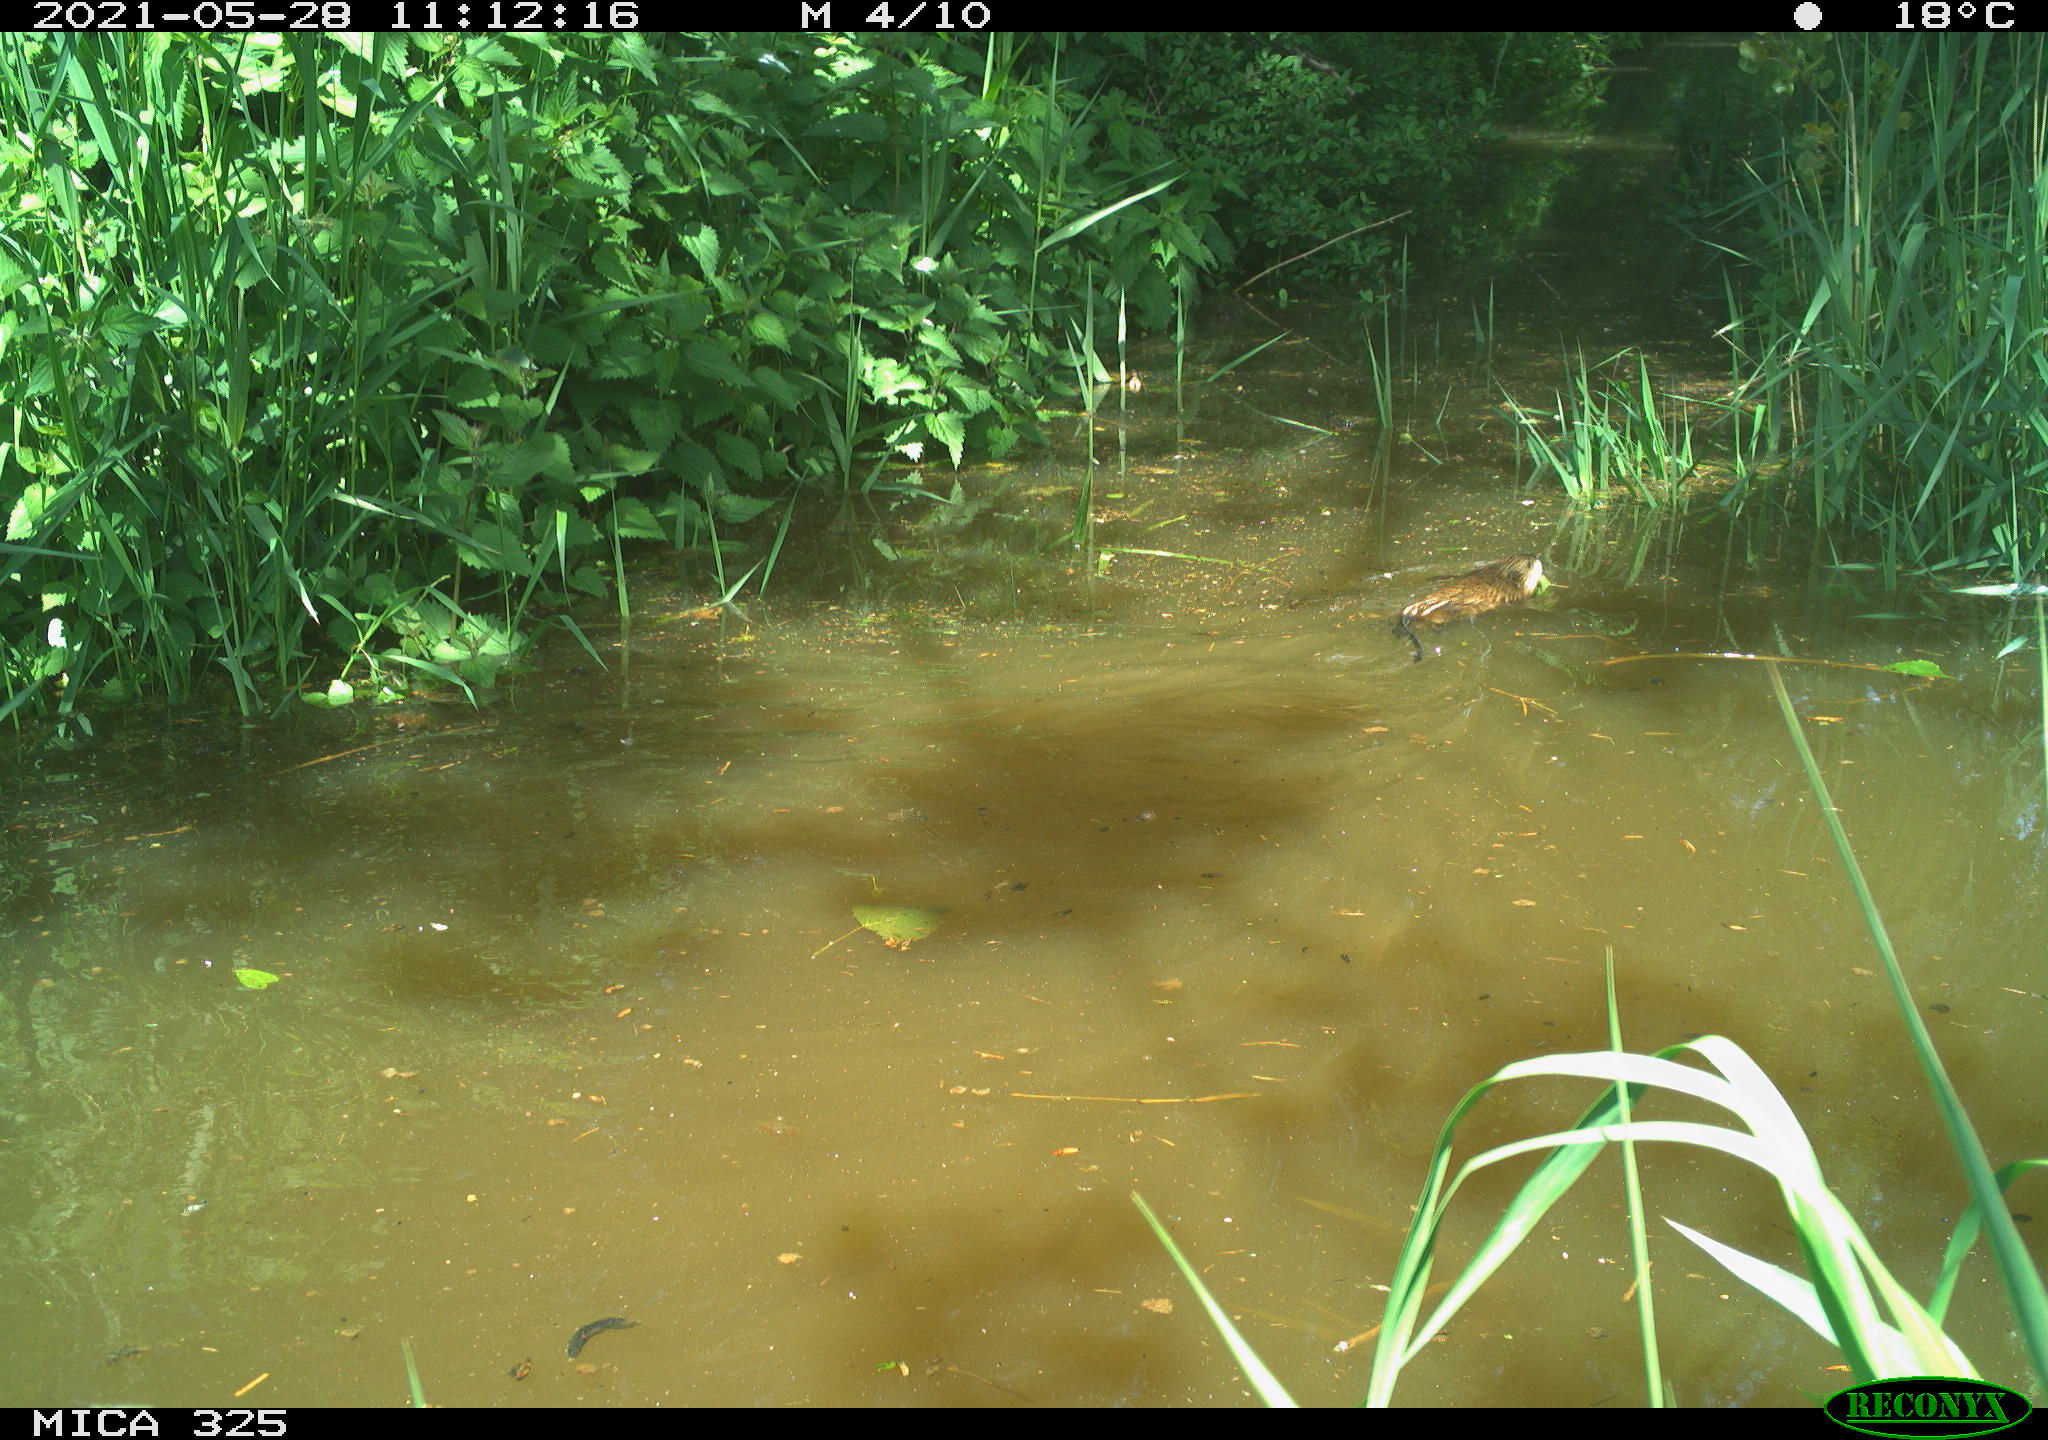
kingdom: Animalia
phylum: Chordata
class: Mammalia
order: Rodentia
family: Cricetidae
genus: Ondatra
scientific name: Ondatra zibethicus
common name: Muskrat
